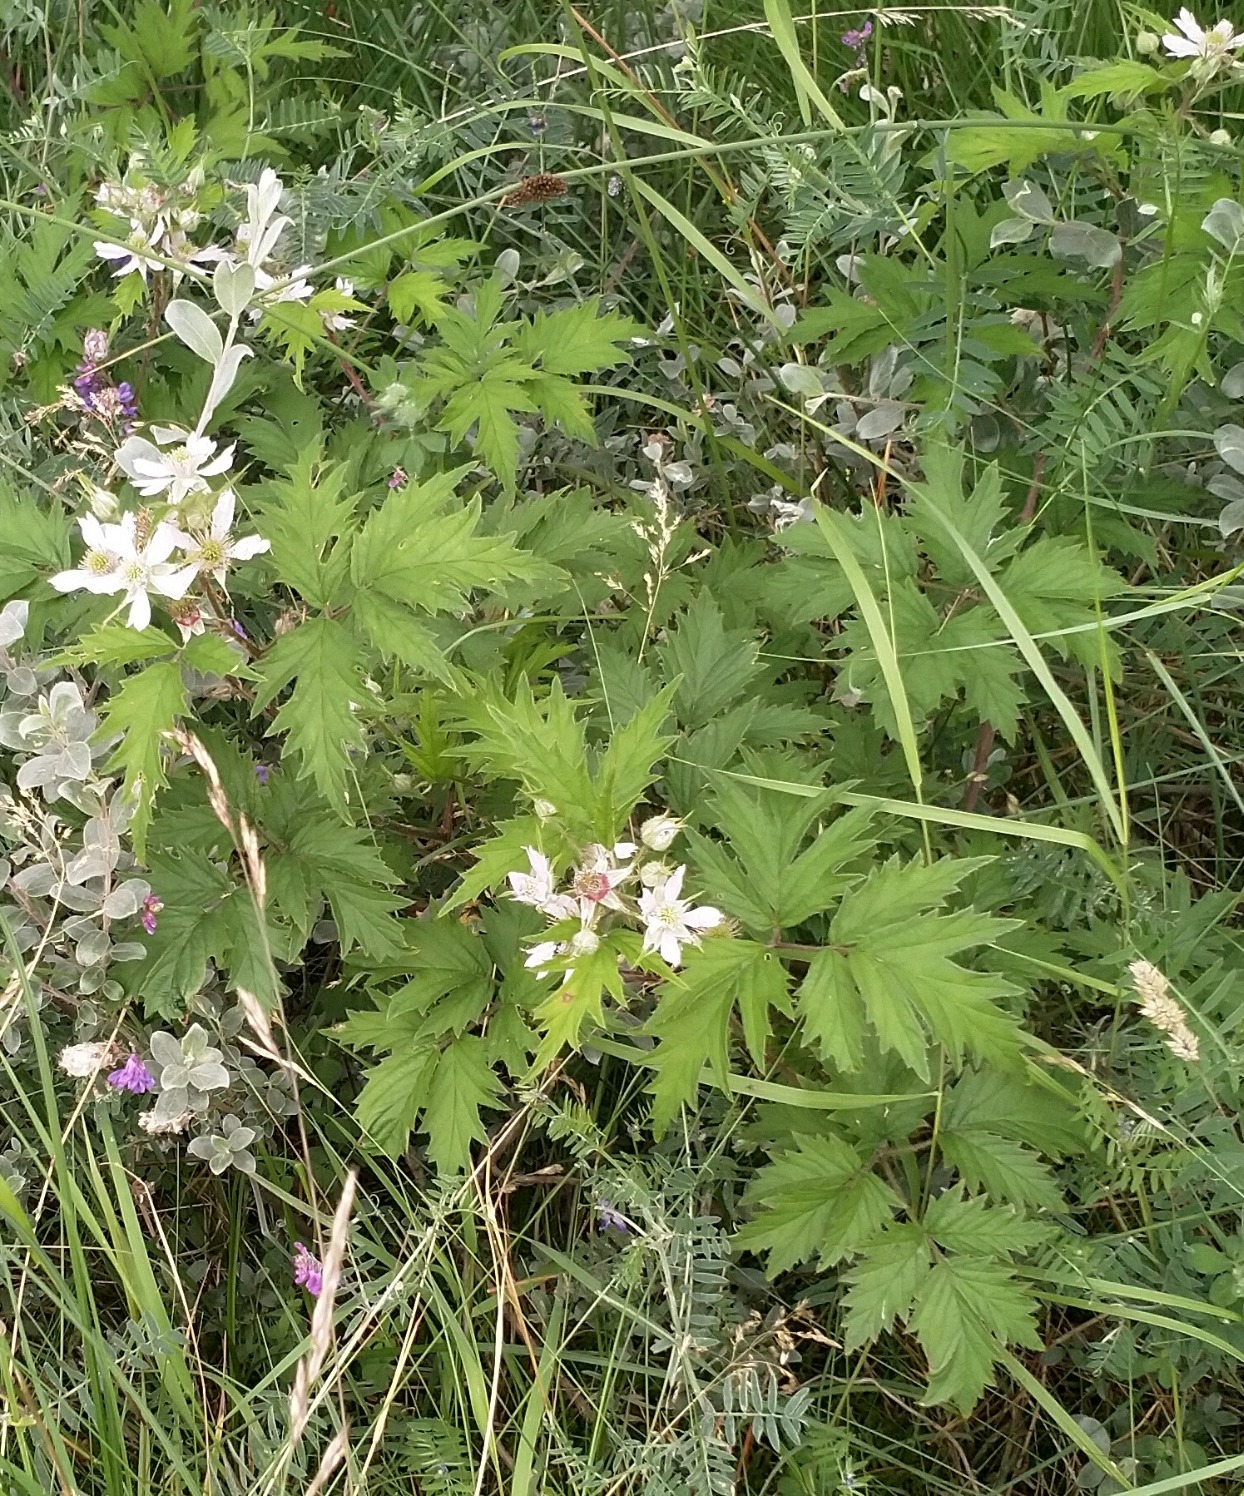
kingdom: Plantae
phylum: Tracheophyta
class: Magnoliopsida
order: Rosales
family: Rosaceae
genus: Rubus
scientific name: Rubus laciniatus
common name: Fliget brombær
